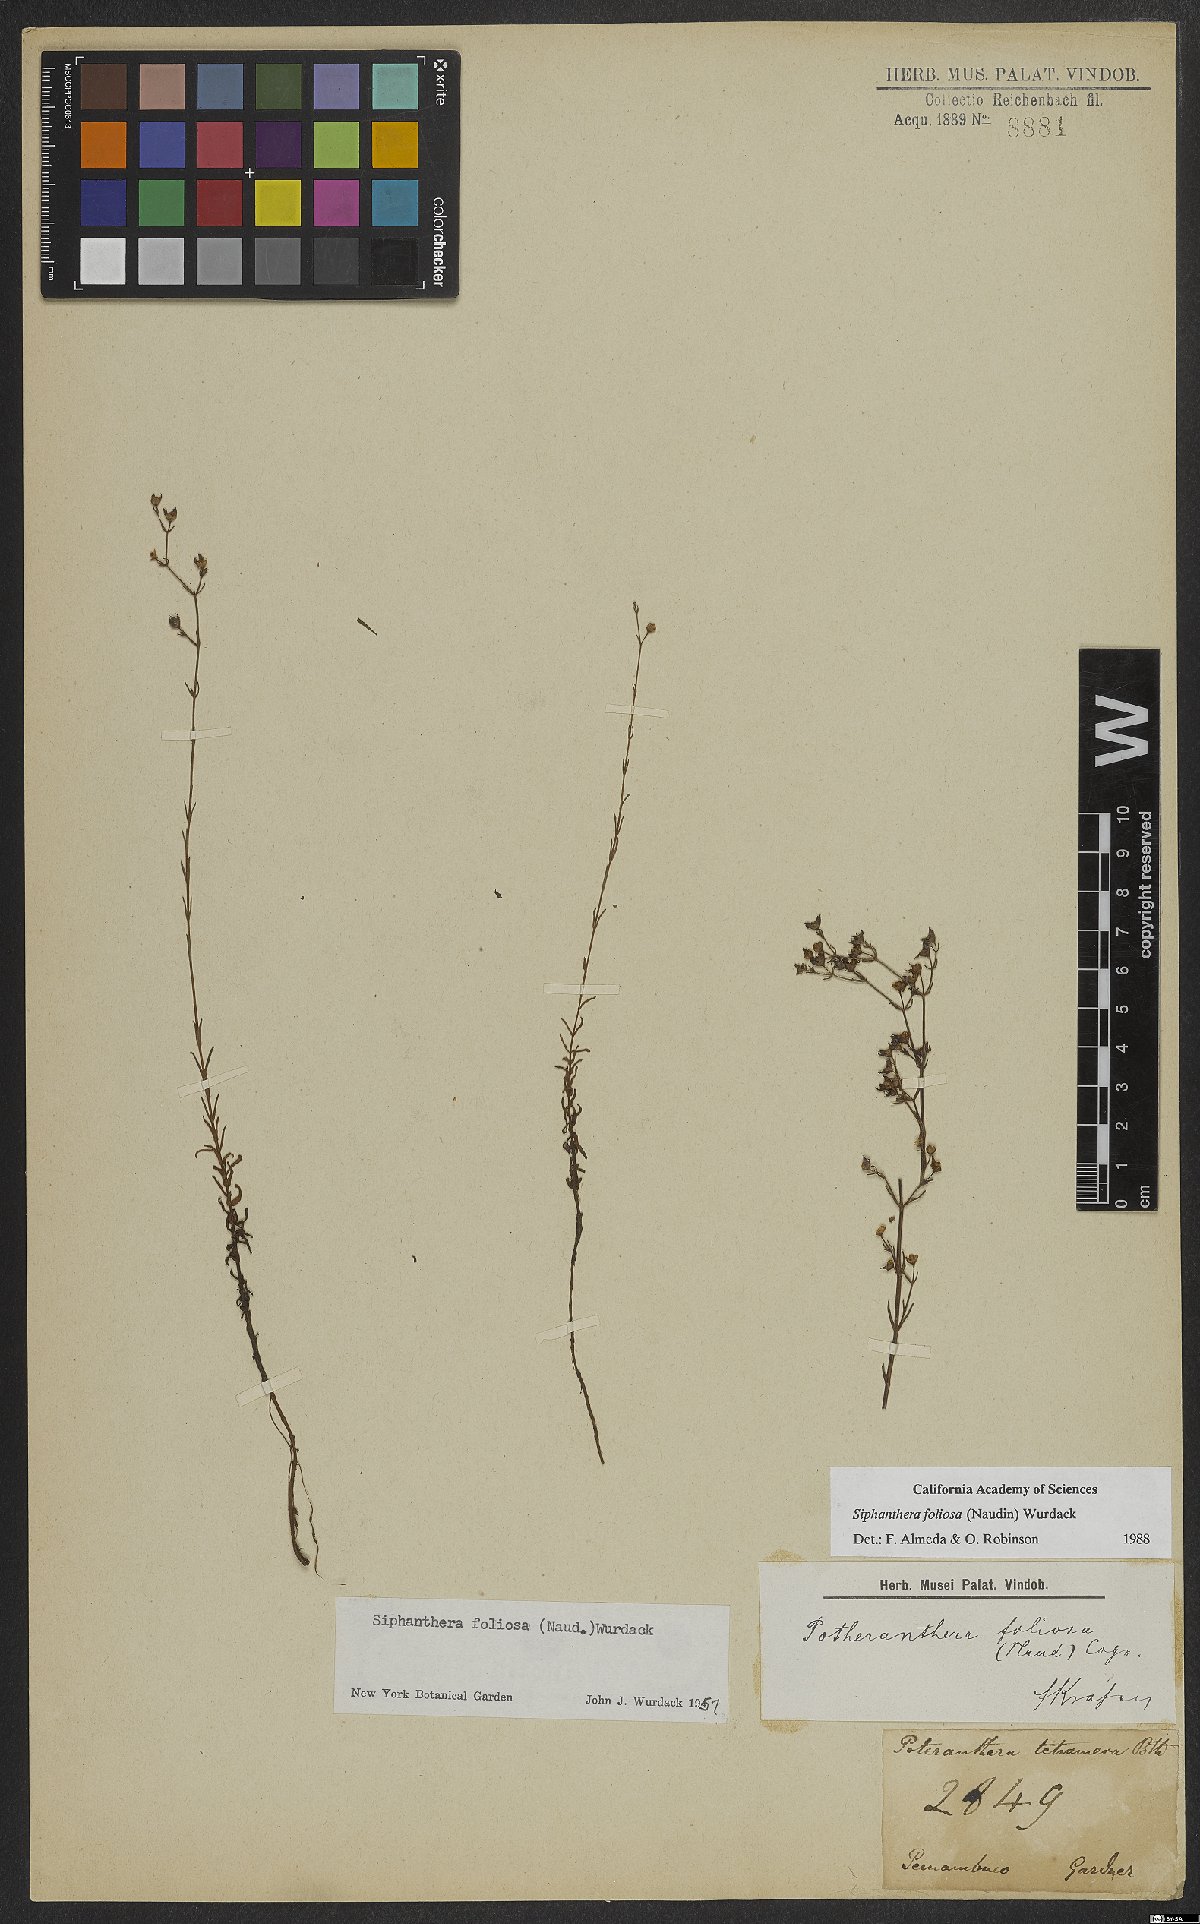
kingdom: Plantae
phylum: Tracheophyta
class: Magnoliopsida
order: Myrtales
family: Melastomataceae
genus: Siphanthera
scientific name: Siphanthera foliosa
